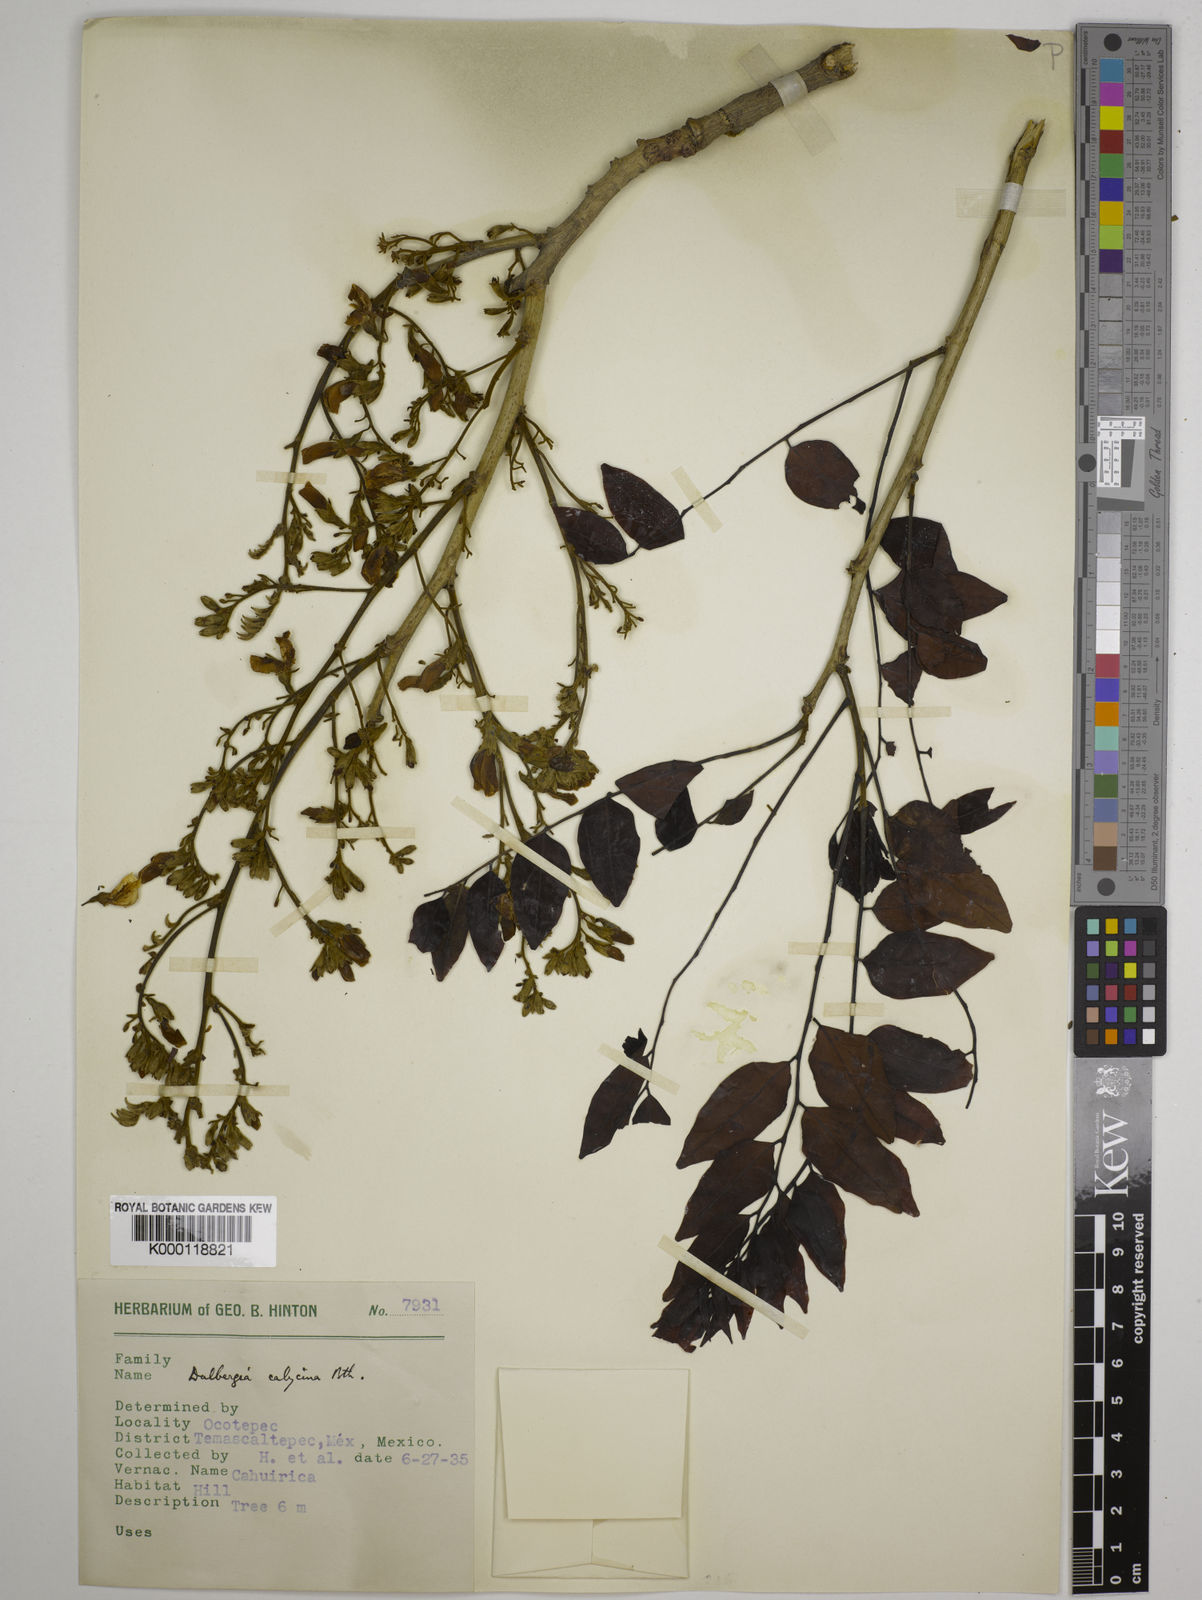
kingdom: Plantae
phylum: Tracheophyta
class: Magnoliopsida
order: Fabales
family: Fabaceae
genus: Dalbergia
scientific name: Dalbergia calycina
